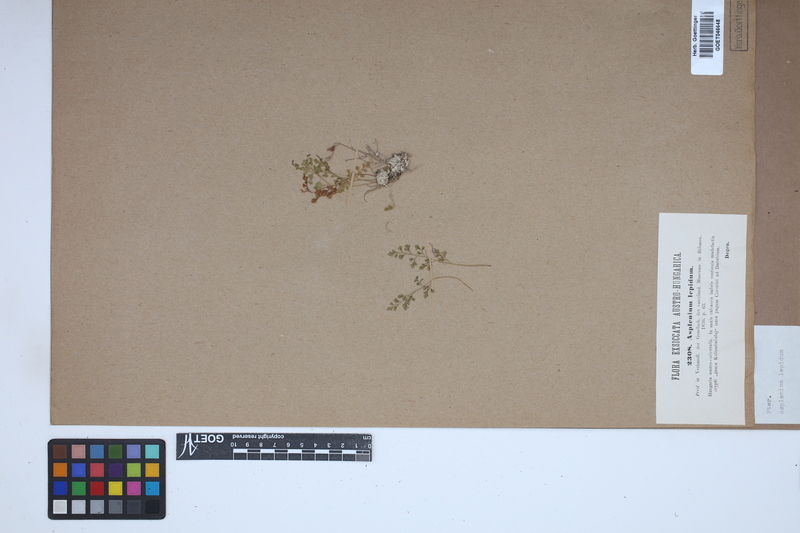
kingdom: Plantae
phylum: Tracheophyta
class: Polypodiopsida
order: Polypodiales
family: Aspleniaceae
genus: Asplenium
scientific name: Asplenium lepidum
